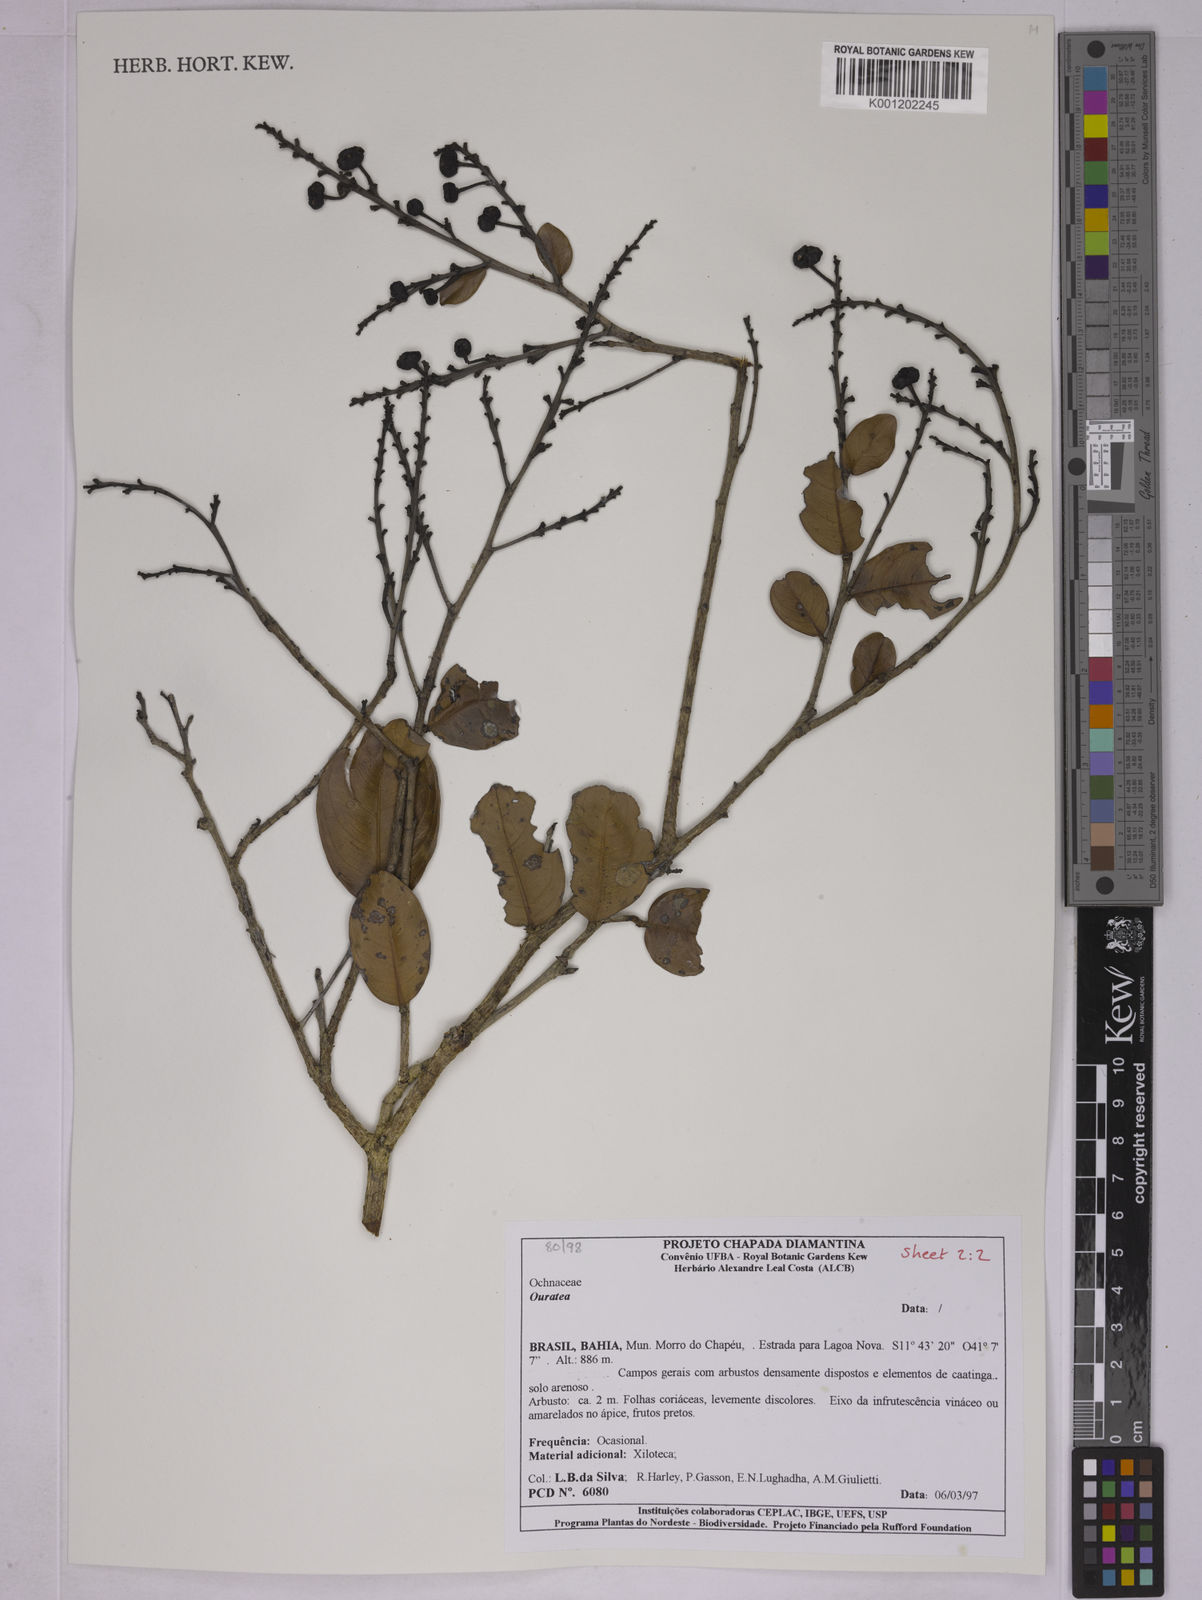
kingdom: Plantae
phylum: Tracheophyta
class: Magnoliopsida
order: Malpighiales
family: Ochnaceae
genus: Ouratea
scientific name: Ouratea
